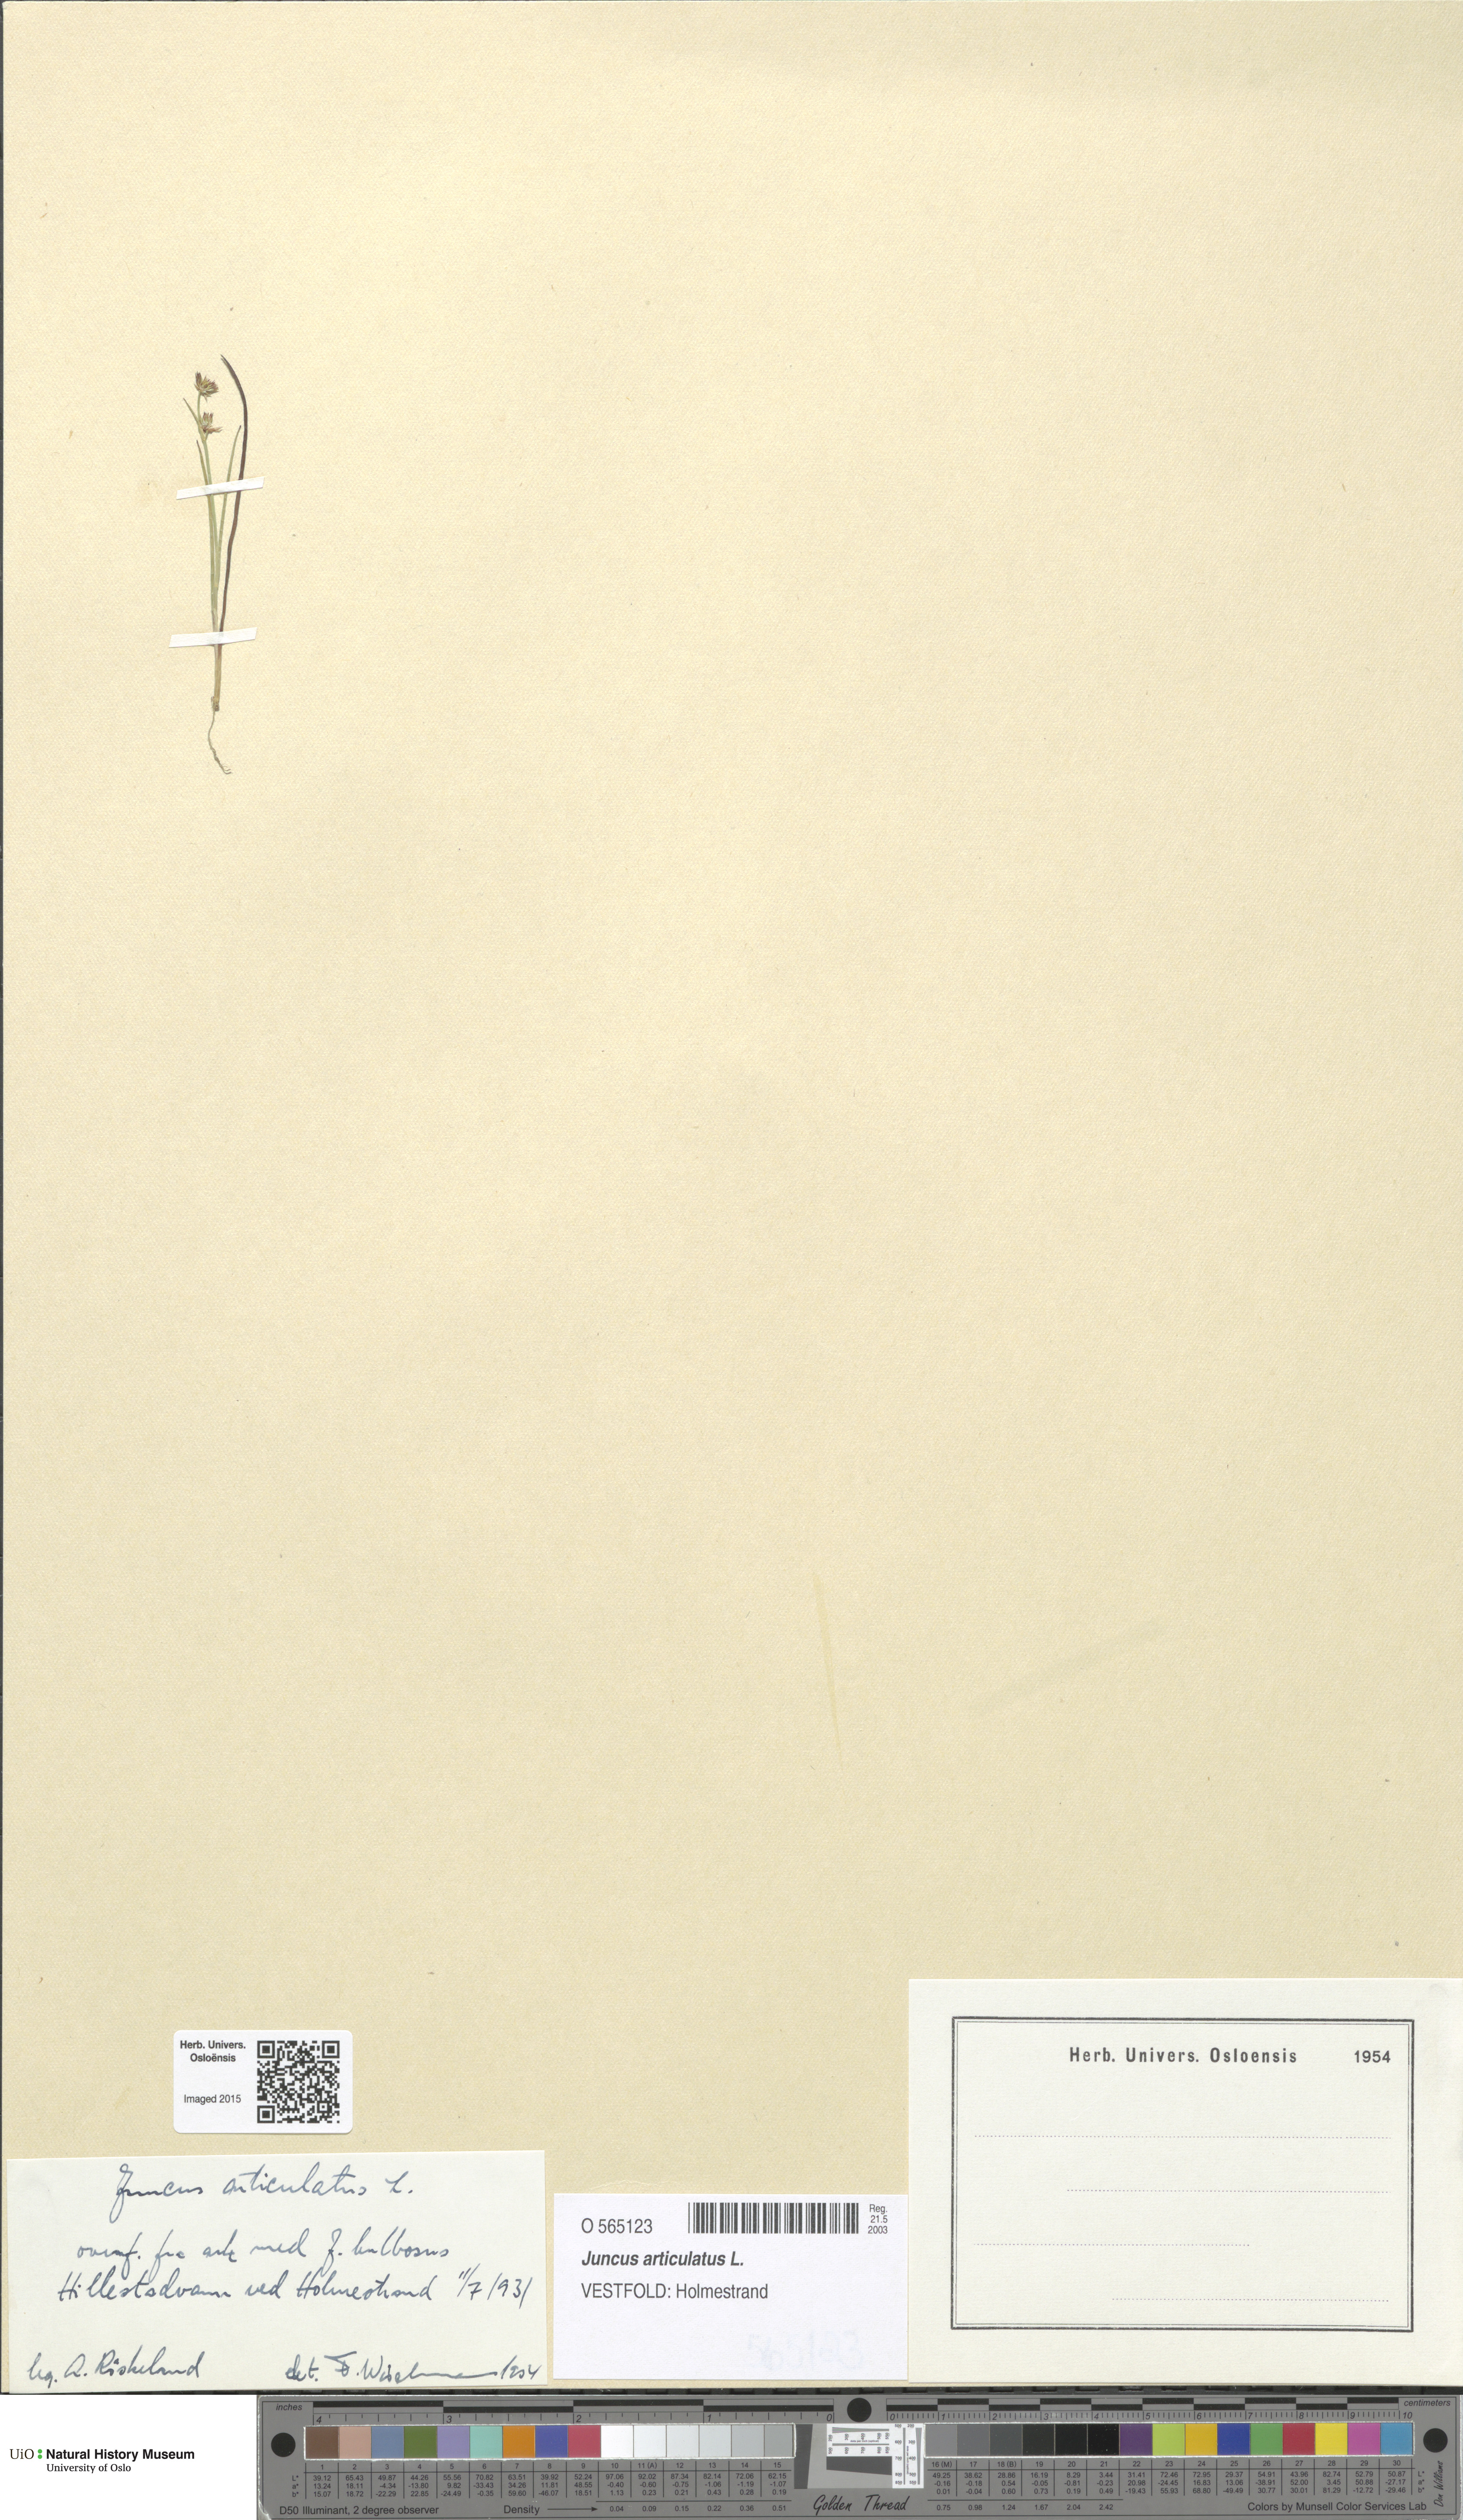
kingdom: Plantae
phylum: Tracheophyta
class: Liliopsida
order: Poales
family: Juncaceae
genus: Juncus
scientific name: Juncus articulatus
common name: Jointed rush
